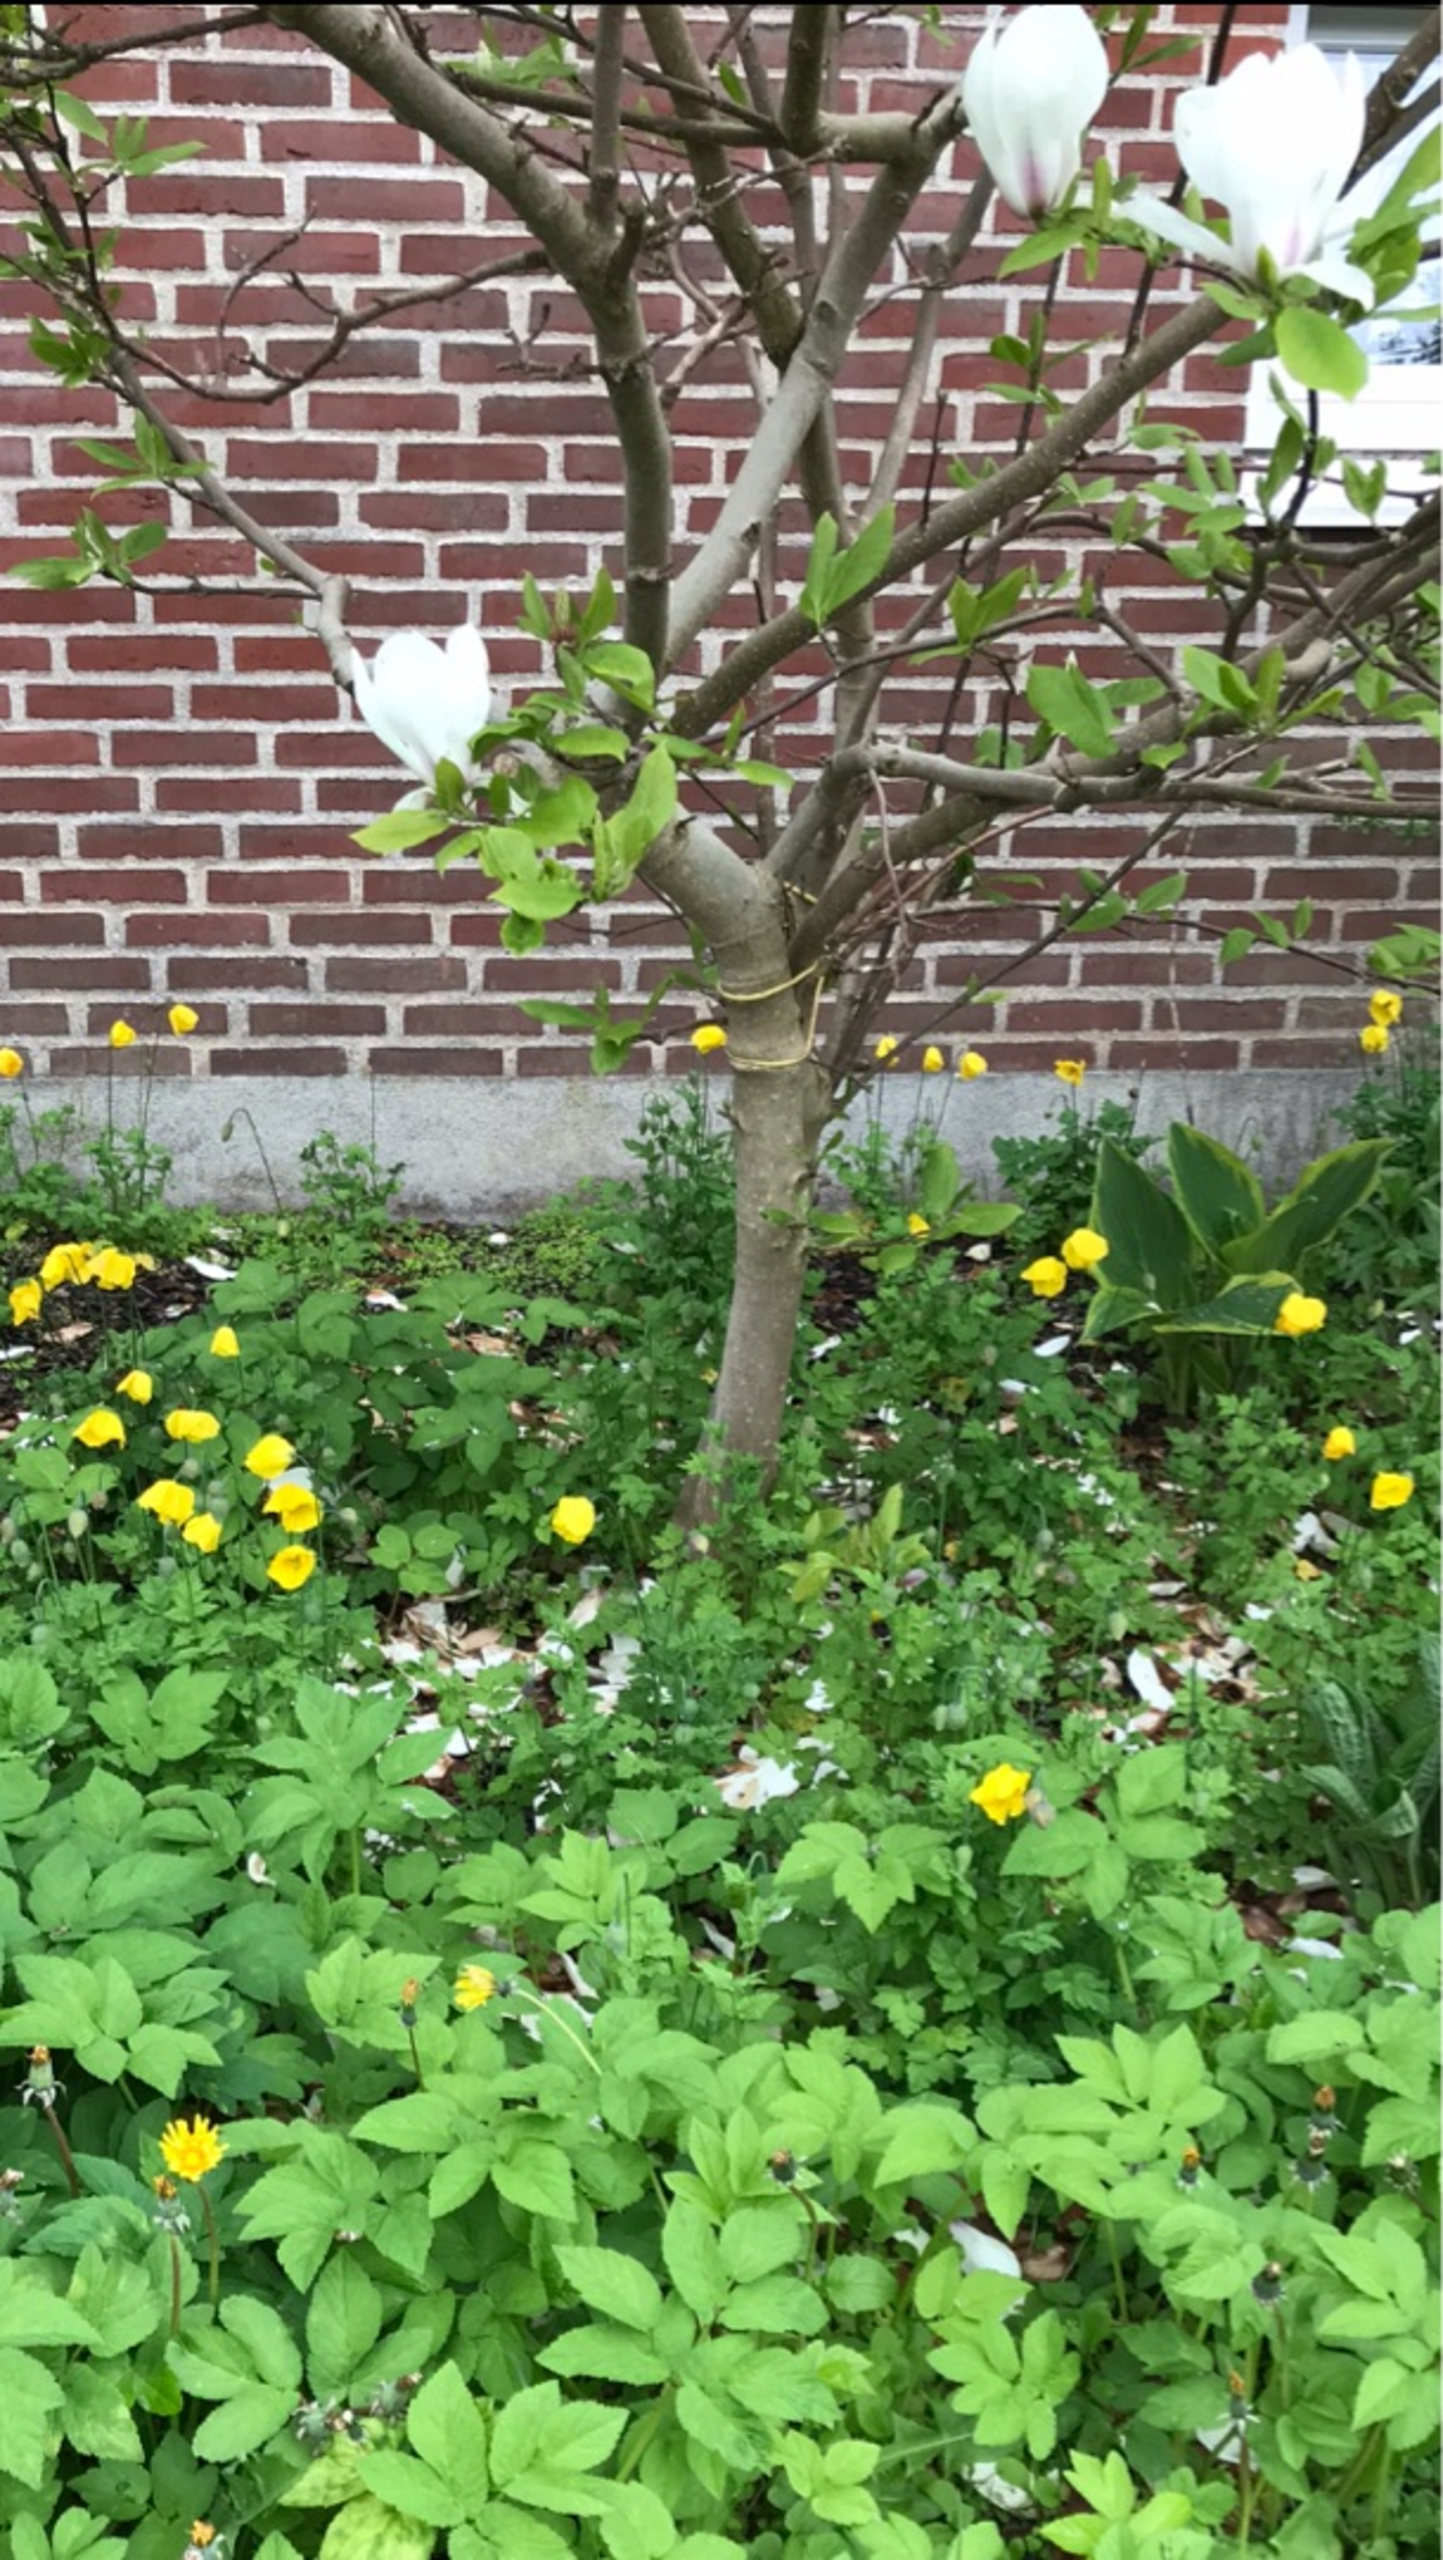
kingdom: Plantae
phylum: Tracheophyta
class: Magnoliopsida
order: Ranunculales
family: Papaveraceae
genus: Papaver
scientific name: Papaver cambricum
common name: Skov-valmue
